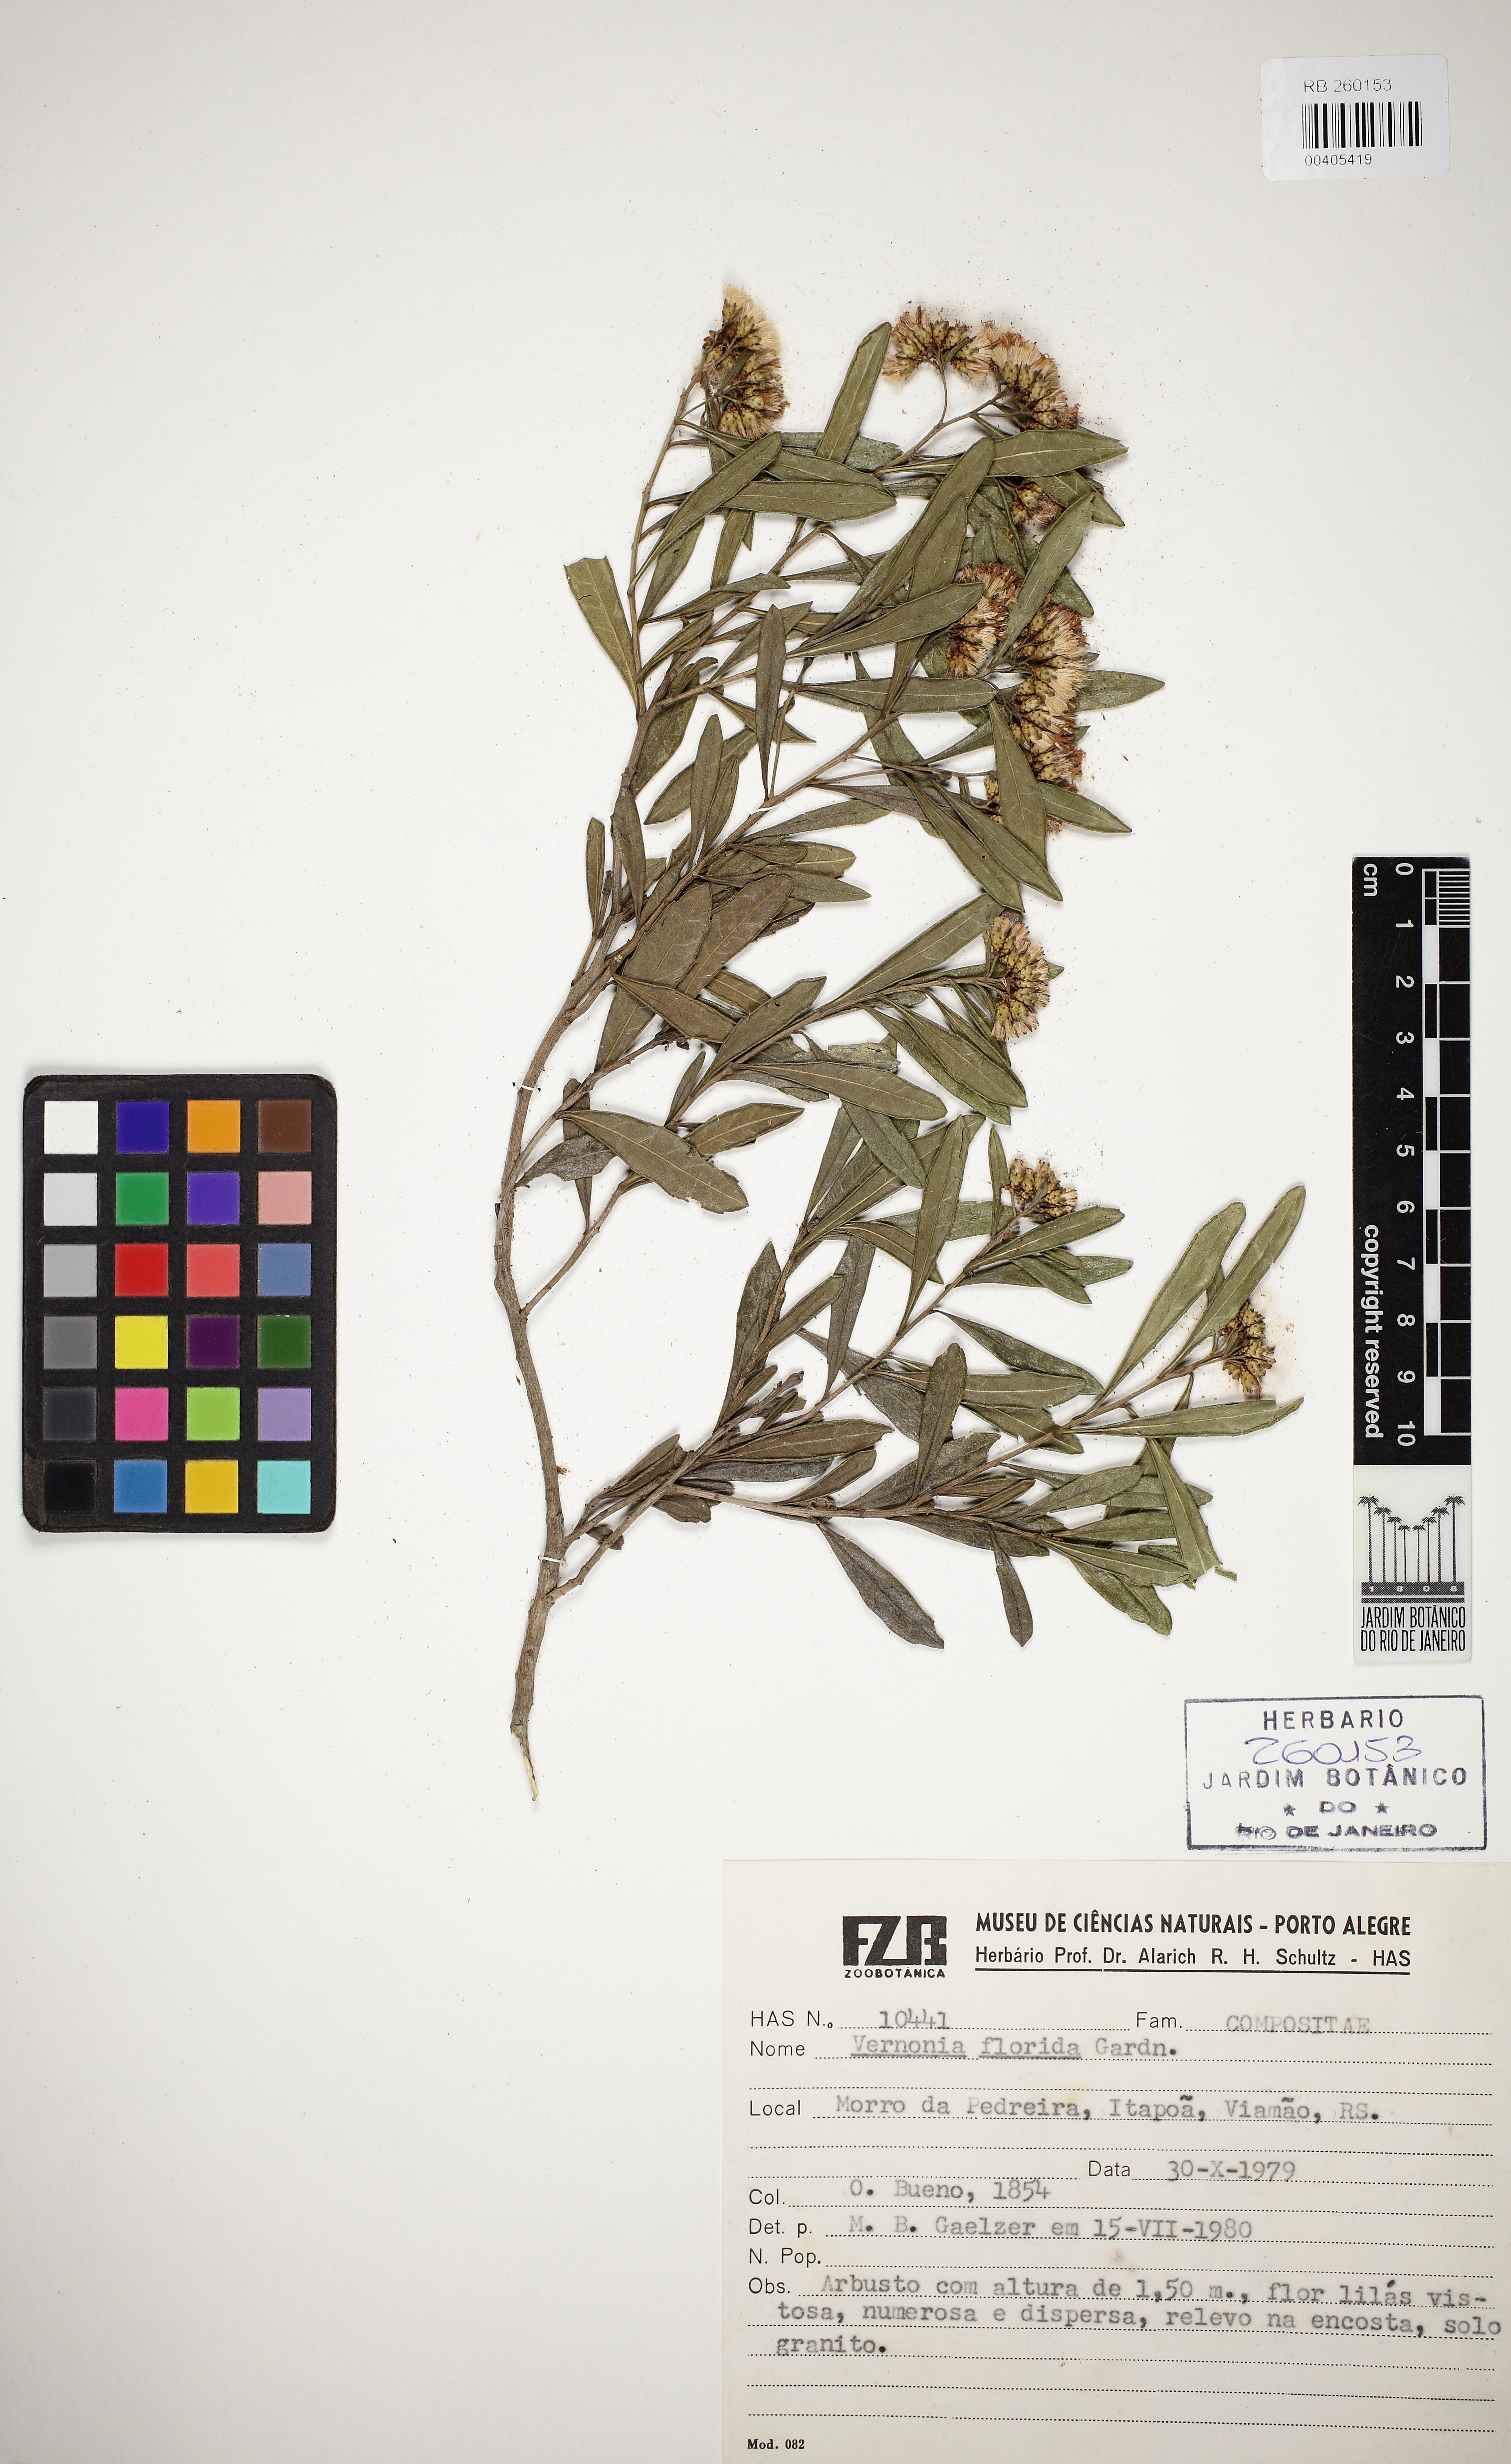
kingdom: Plantae
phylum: Tracheophyta
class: Magnoliopsida
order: Asterales
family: Asteraceae
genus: Vernonanthura
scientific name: Vernonanthura montevidensis
